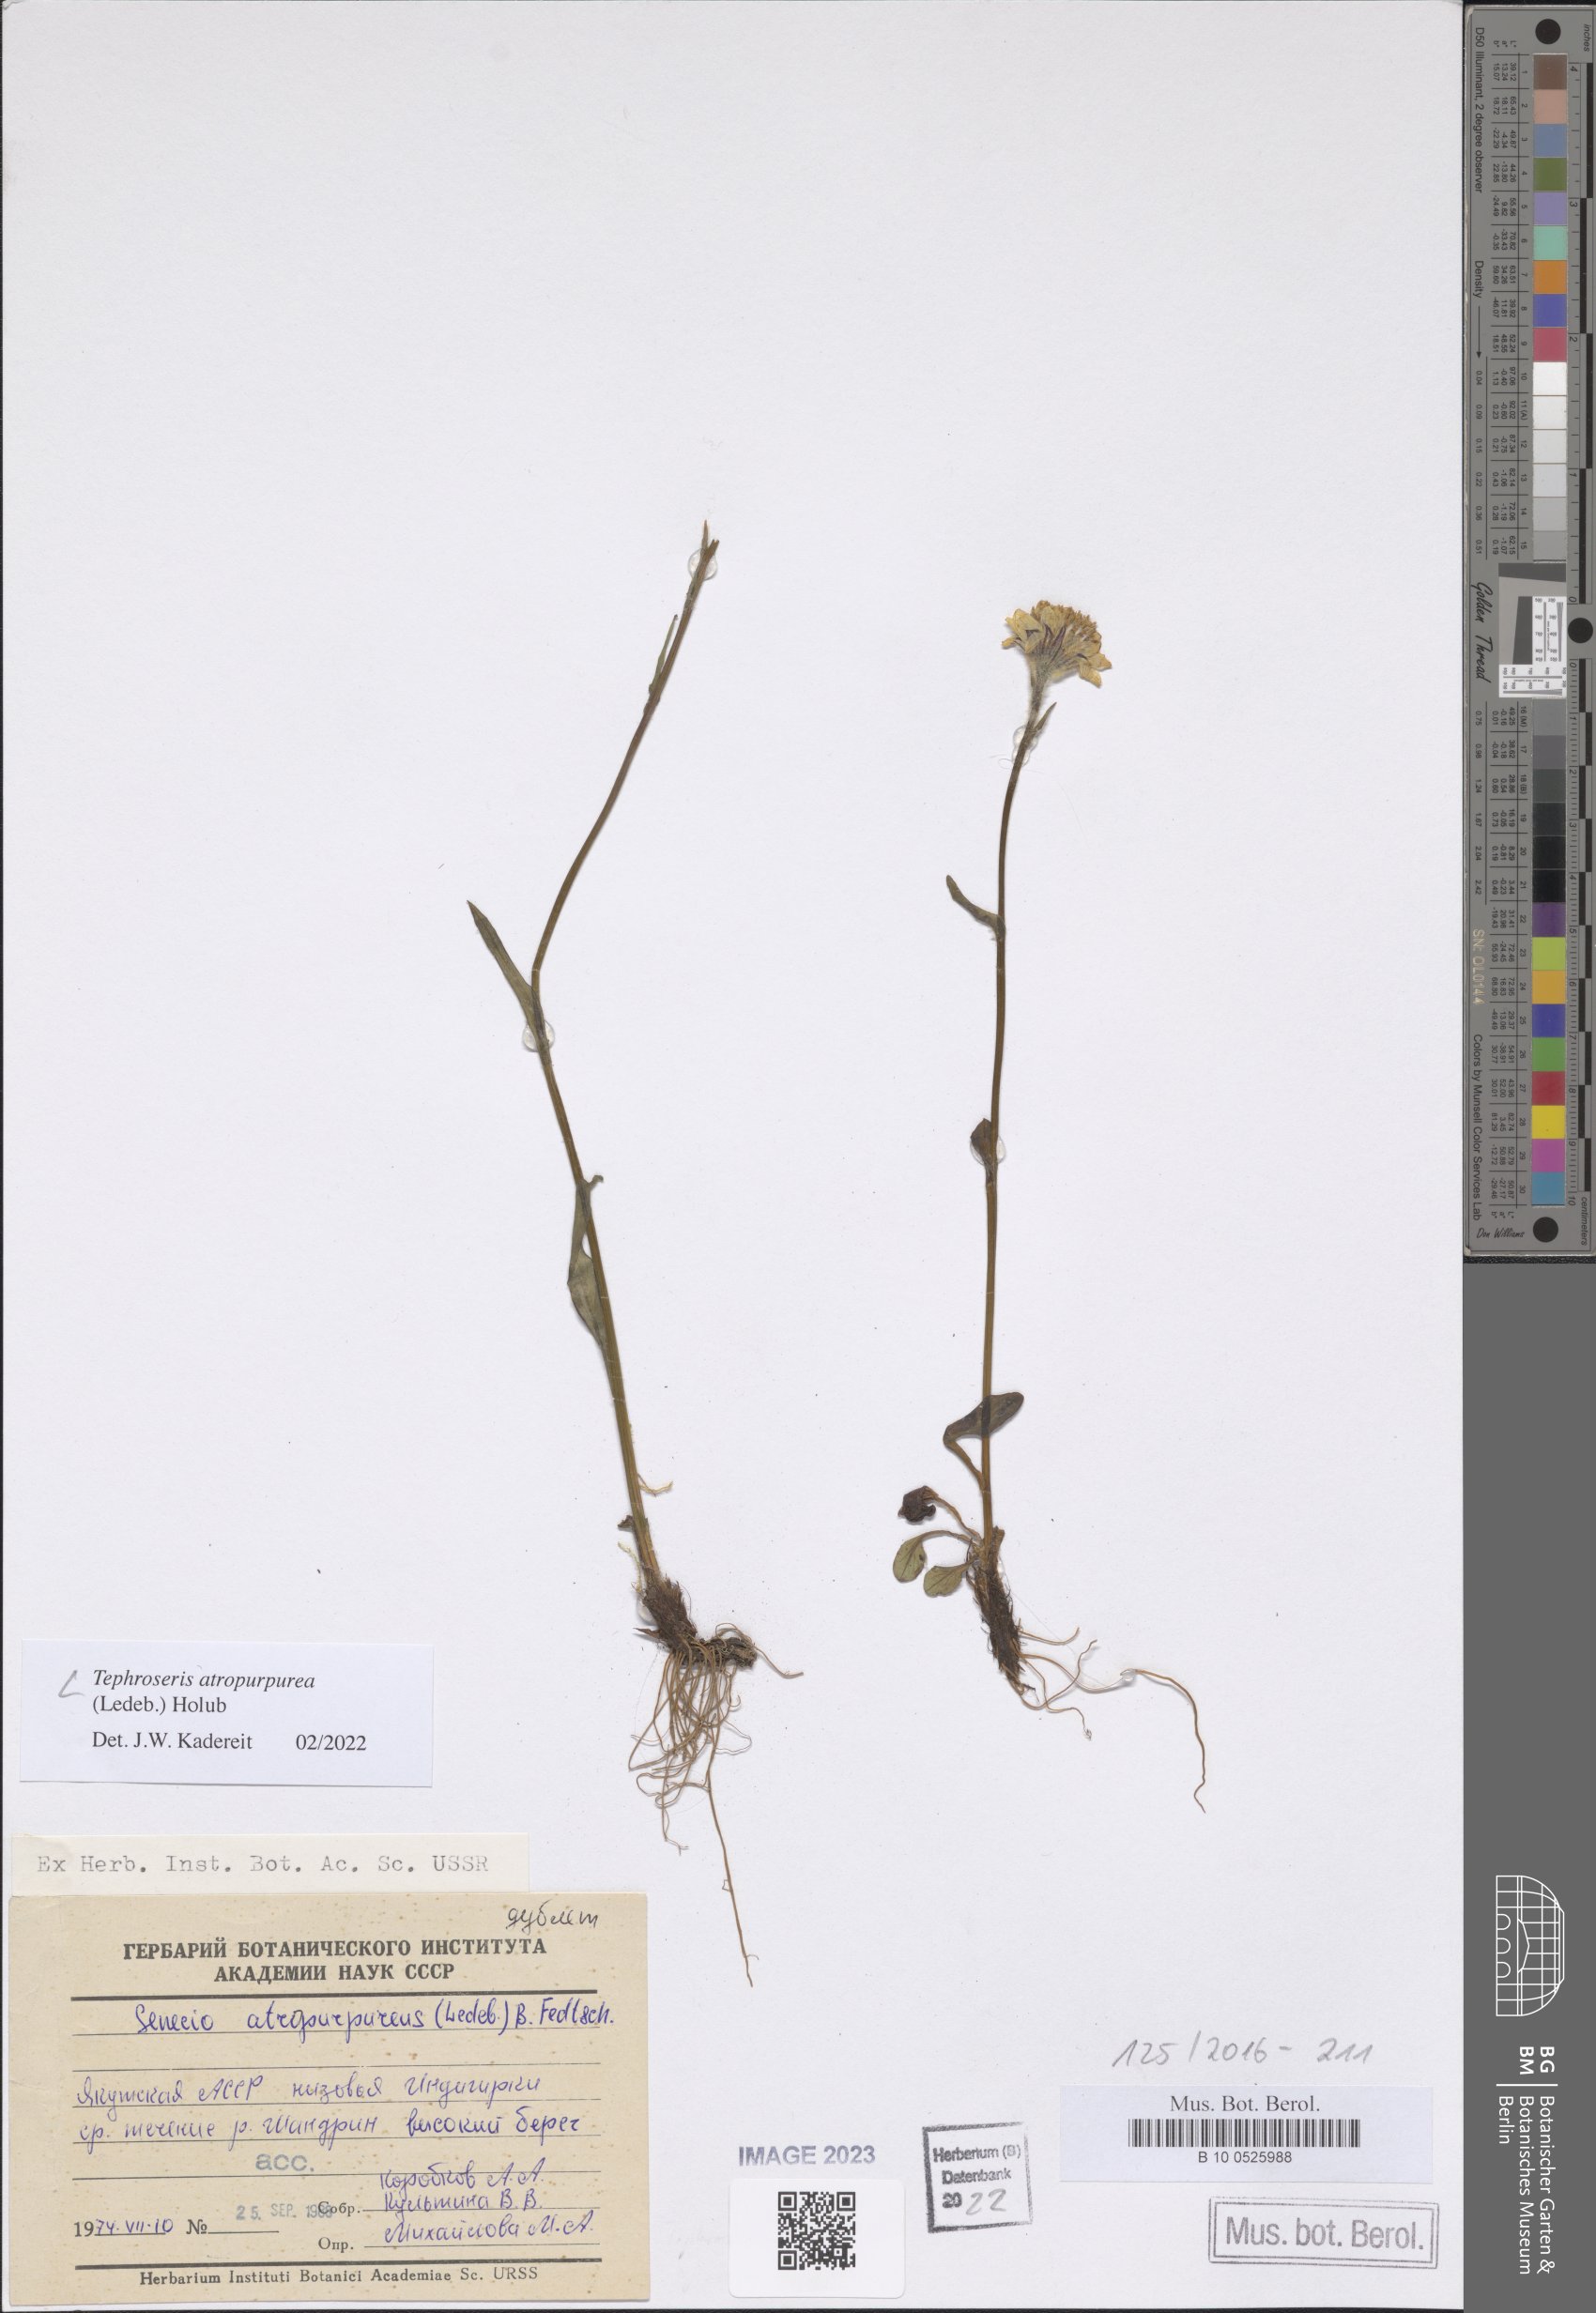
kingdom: Plantae
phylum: Tracheophyta
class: Magnoliopsida
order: Asterales
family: Asteraceae
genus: Tephroseris
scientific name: Tephroseris integrifolia
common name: Field fleawort
